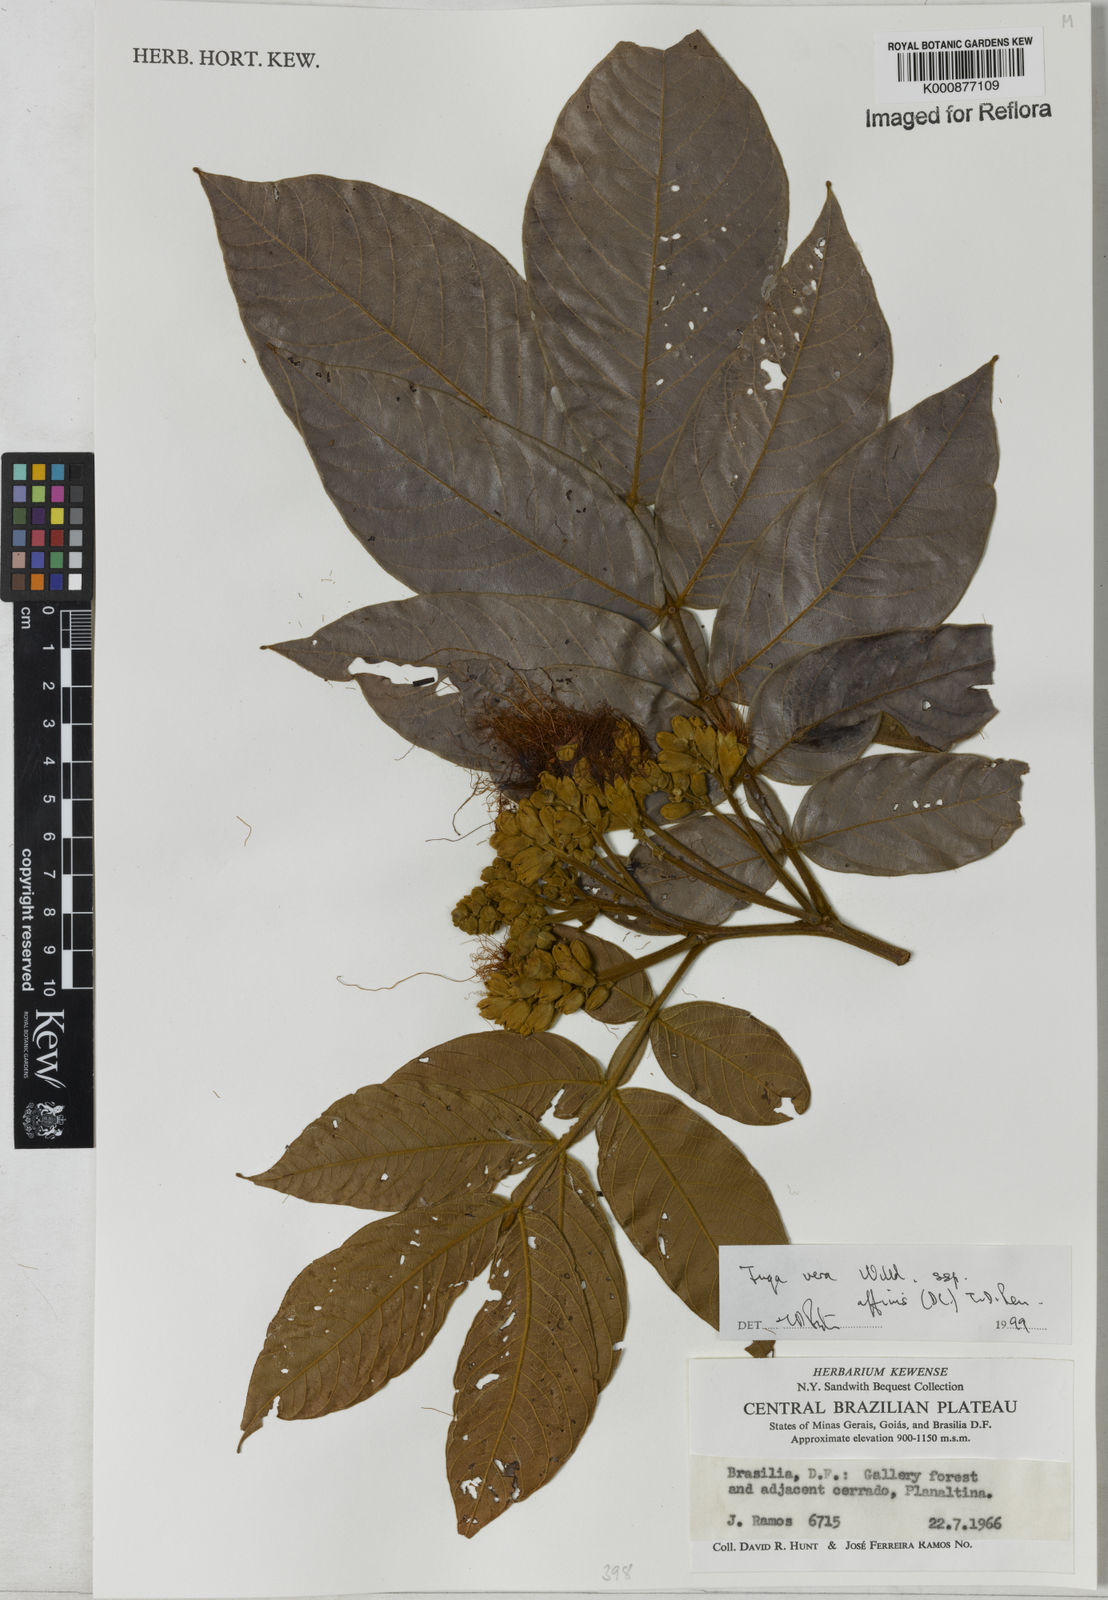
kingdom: Plantae
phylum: Tracheophyta
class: Magnoliopsida
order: Fabales
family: Fabaceae
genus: Inga
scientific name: Inga affinis
